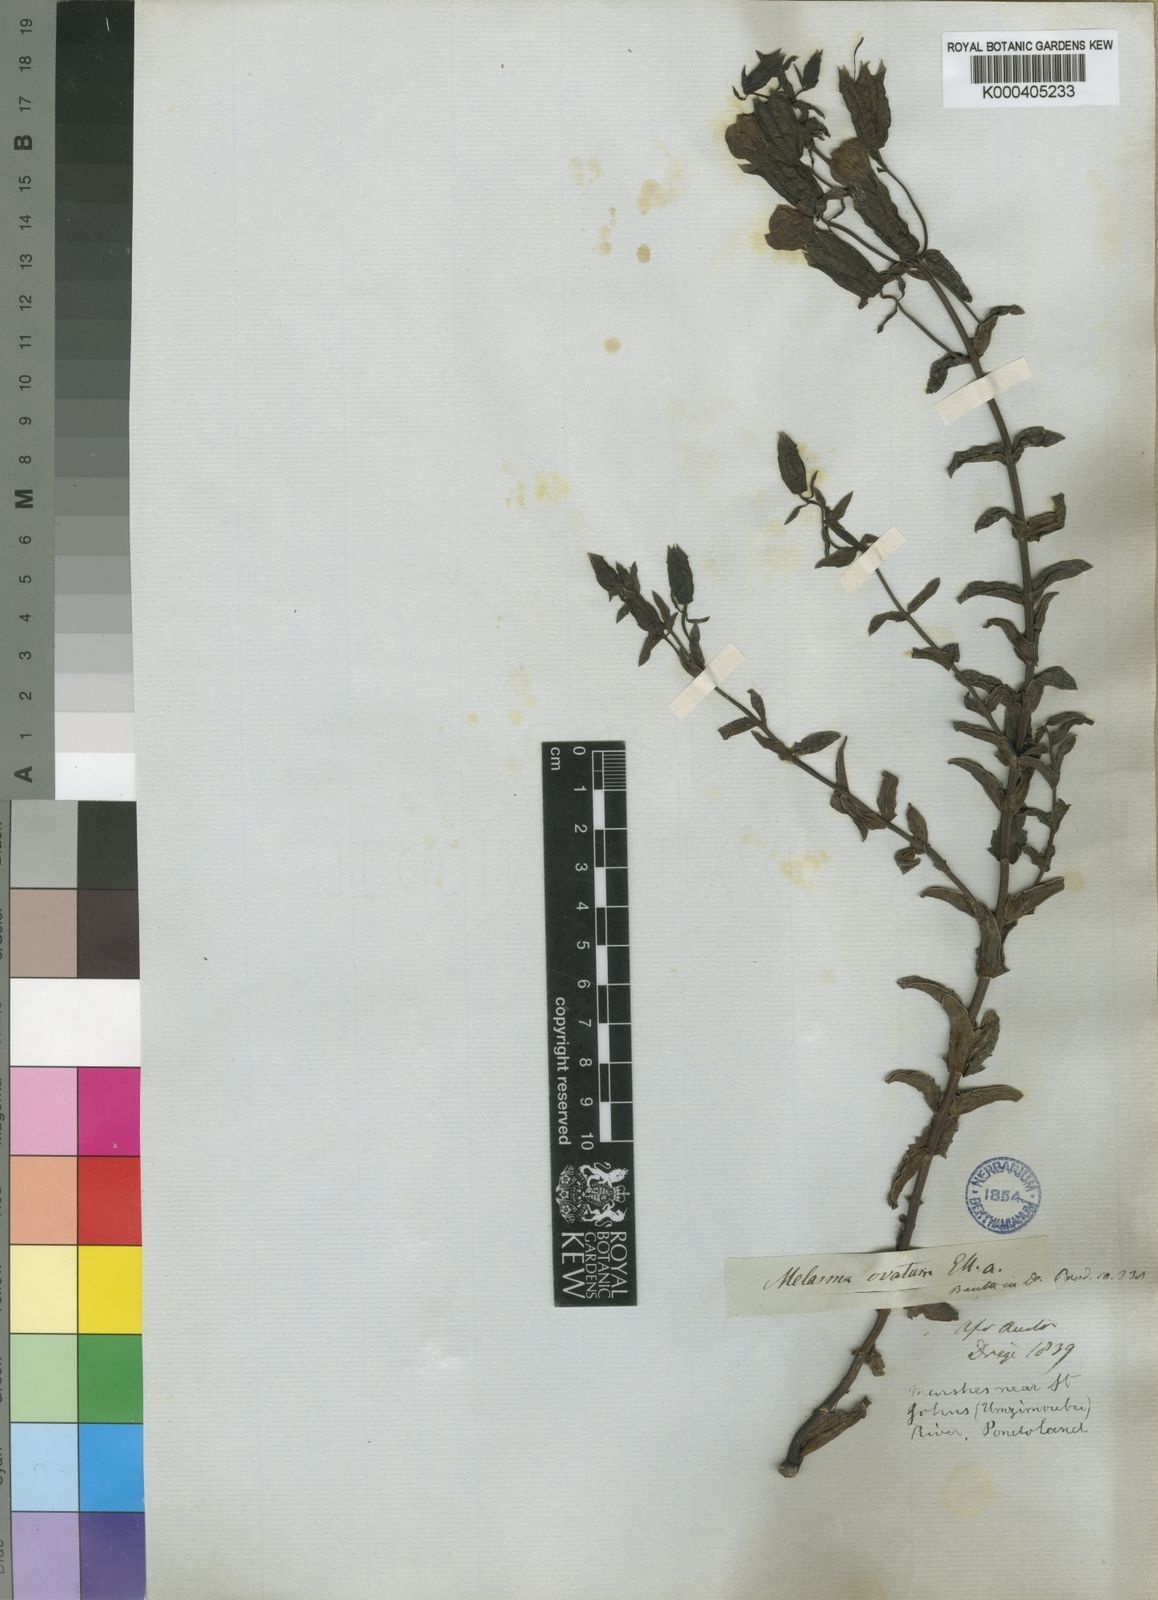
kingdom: Plantae
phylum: Tracheophyta
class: Magnoliopsida
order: Lamiales
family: Orobanchaceae
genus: Melasma
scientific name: Melasma scabrum
